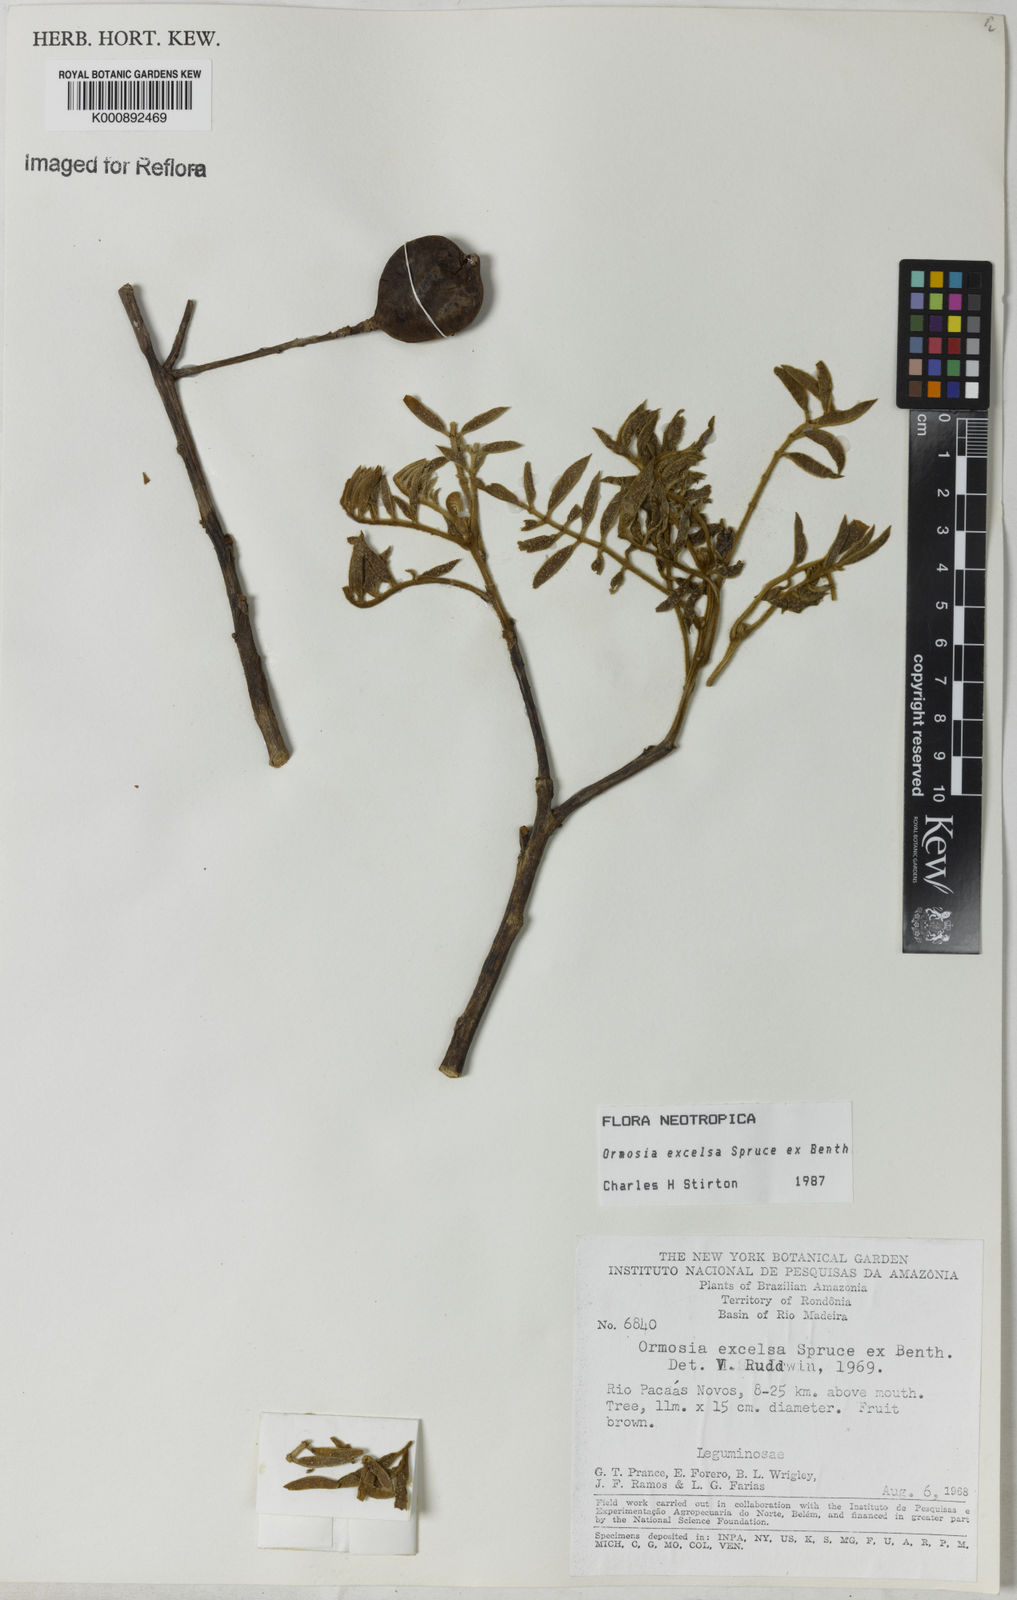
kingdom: Plantae
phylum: Tracheophyta
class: Magnoliopsida
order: Fabales
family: Fabaceae
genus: Ormosia
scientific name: Ormosia excelsa
